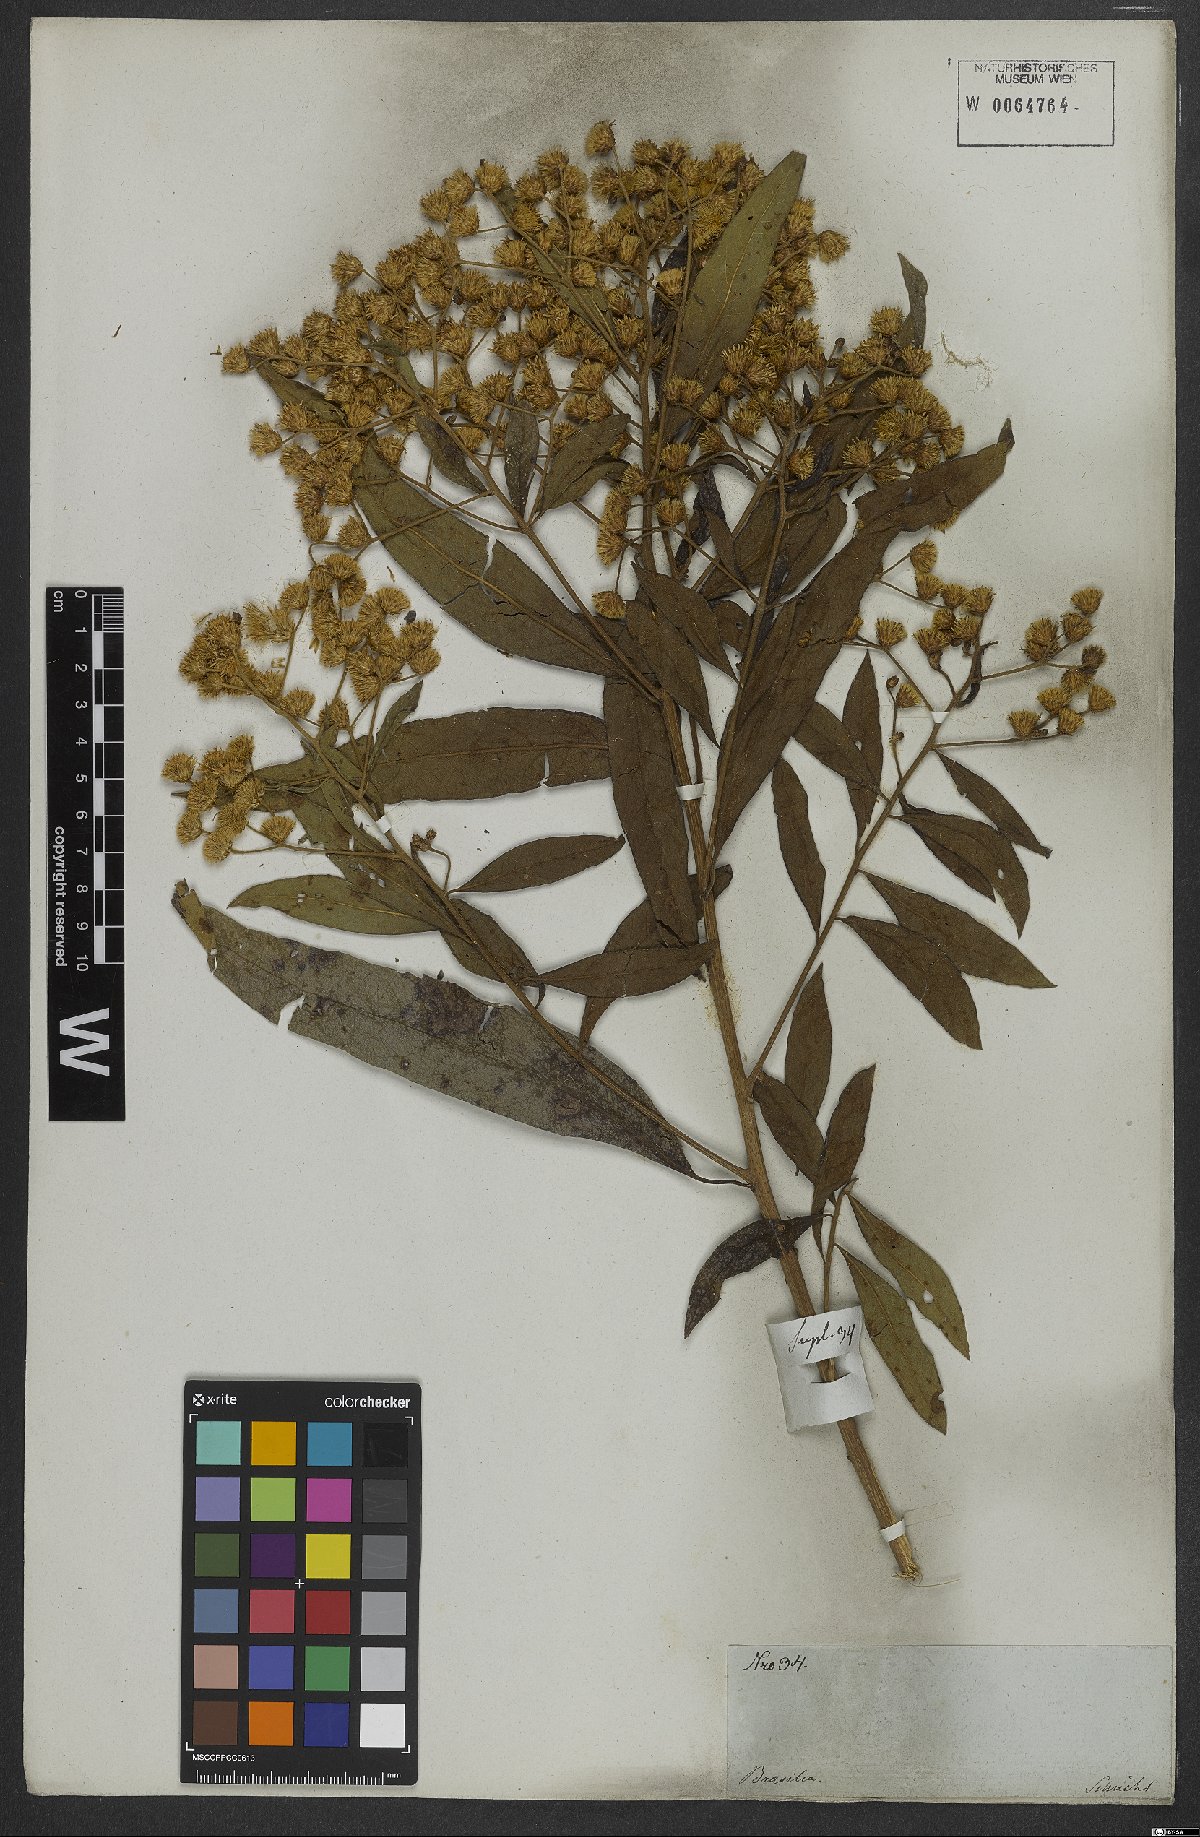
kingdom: Plantae
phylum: Tracheophyta
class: Magnoliopsida
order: Asterales
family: Asteraceae
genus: Vernonia
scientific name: Vernonia
